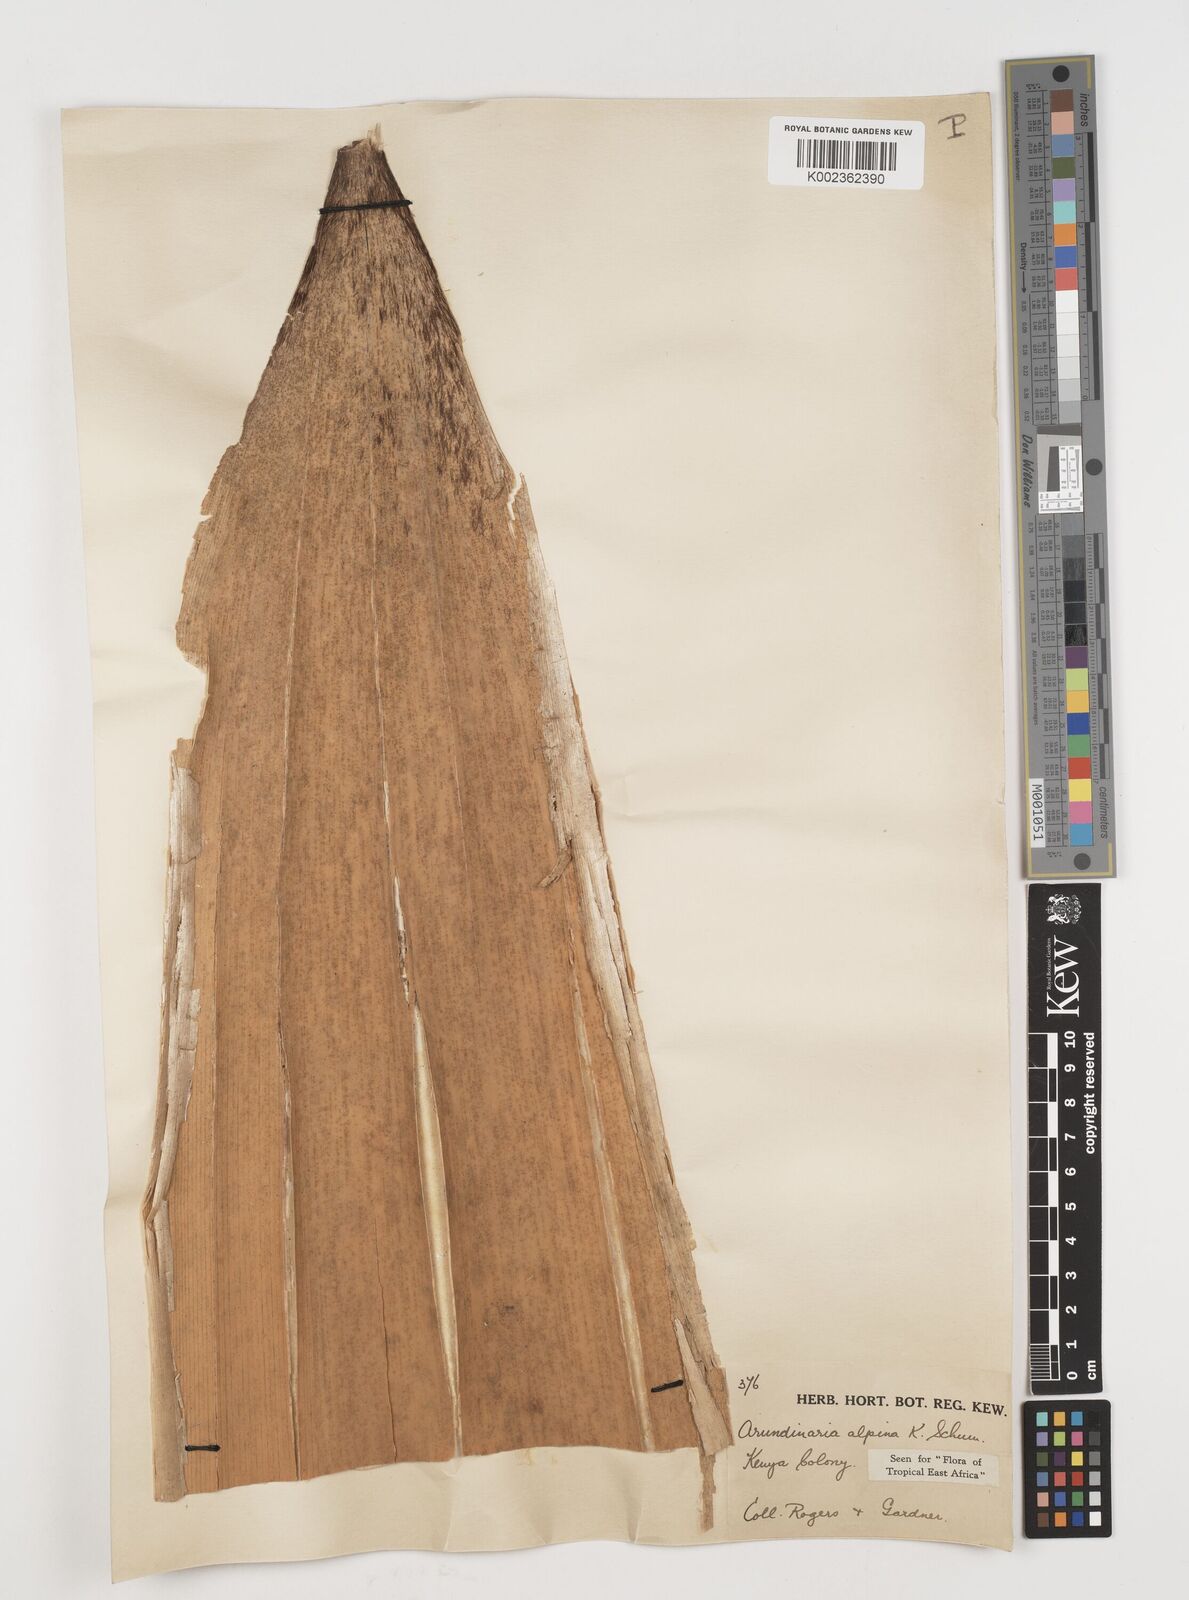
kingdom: Plantae
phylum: Tracheophyta
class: Liliopsida
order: Poales
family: Poaceae
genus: Oldeania
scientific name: Oldeania alpina
